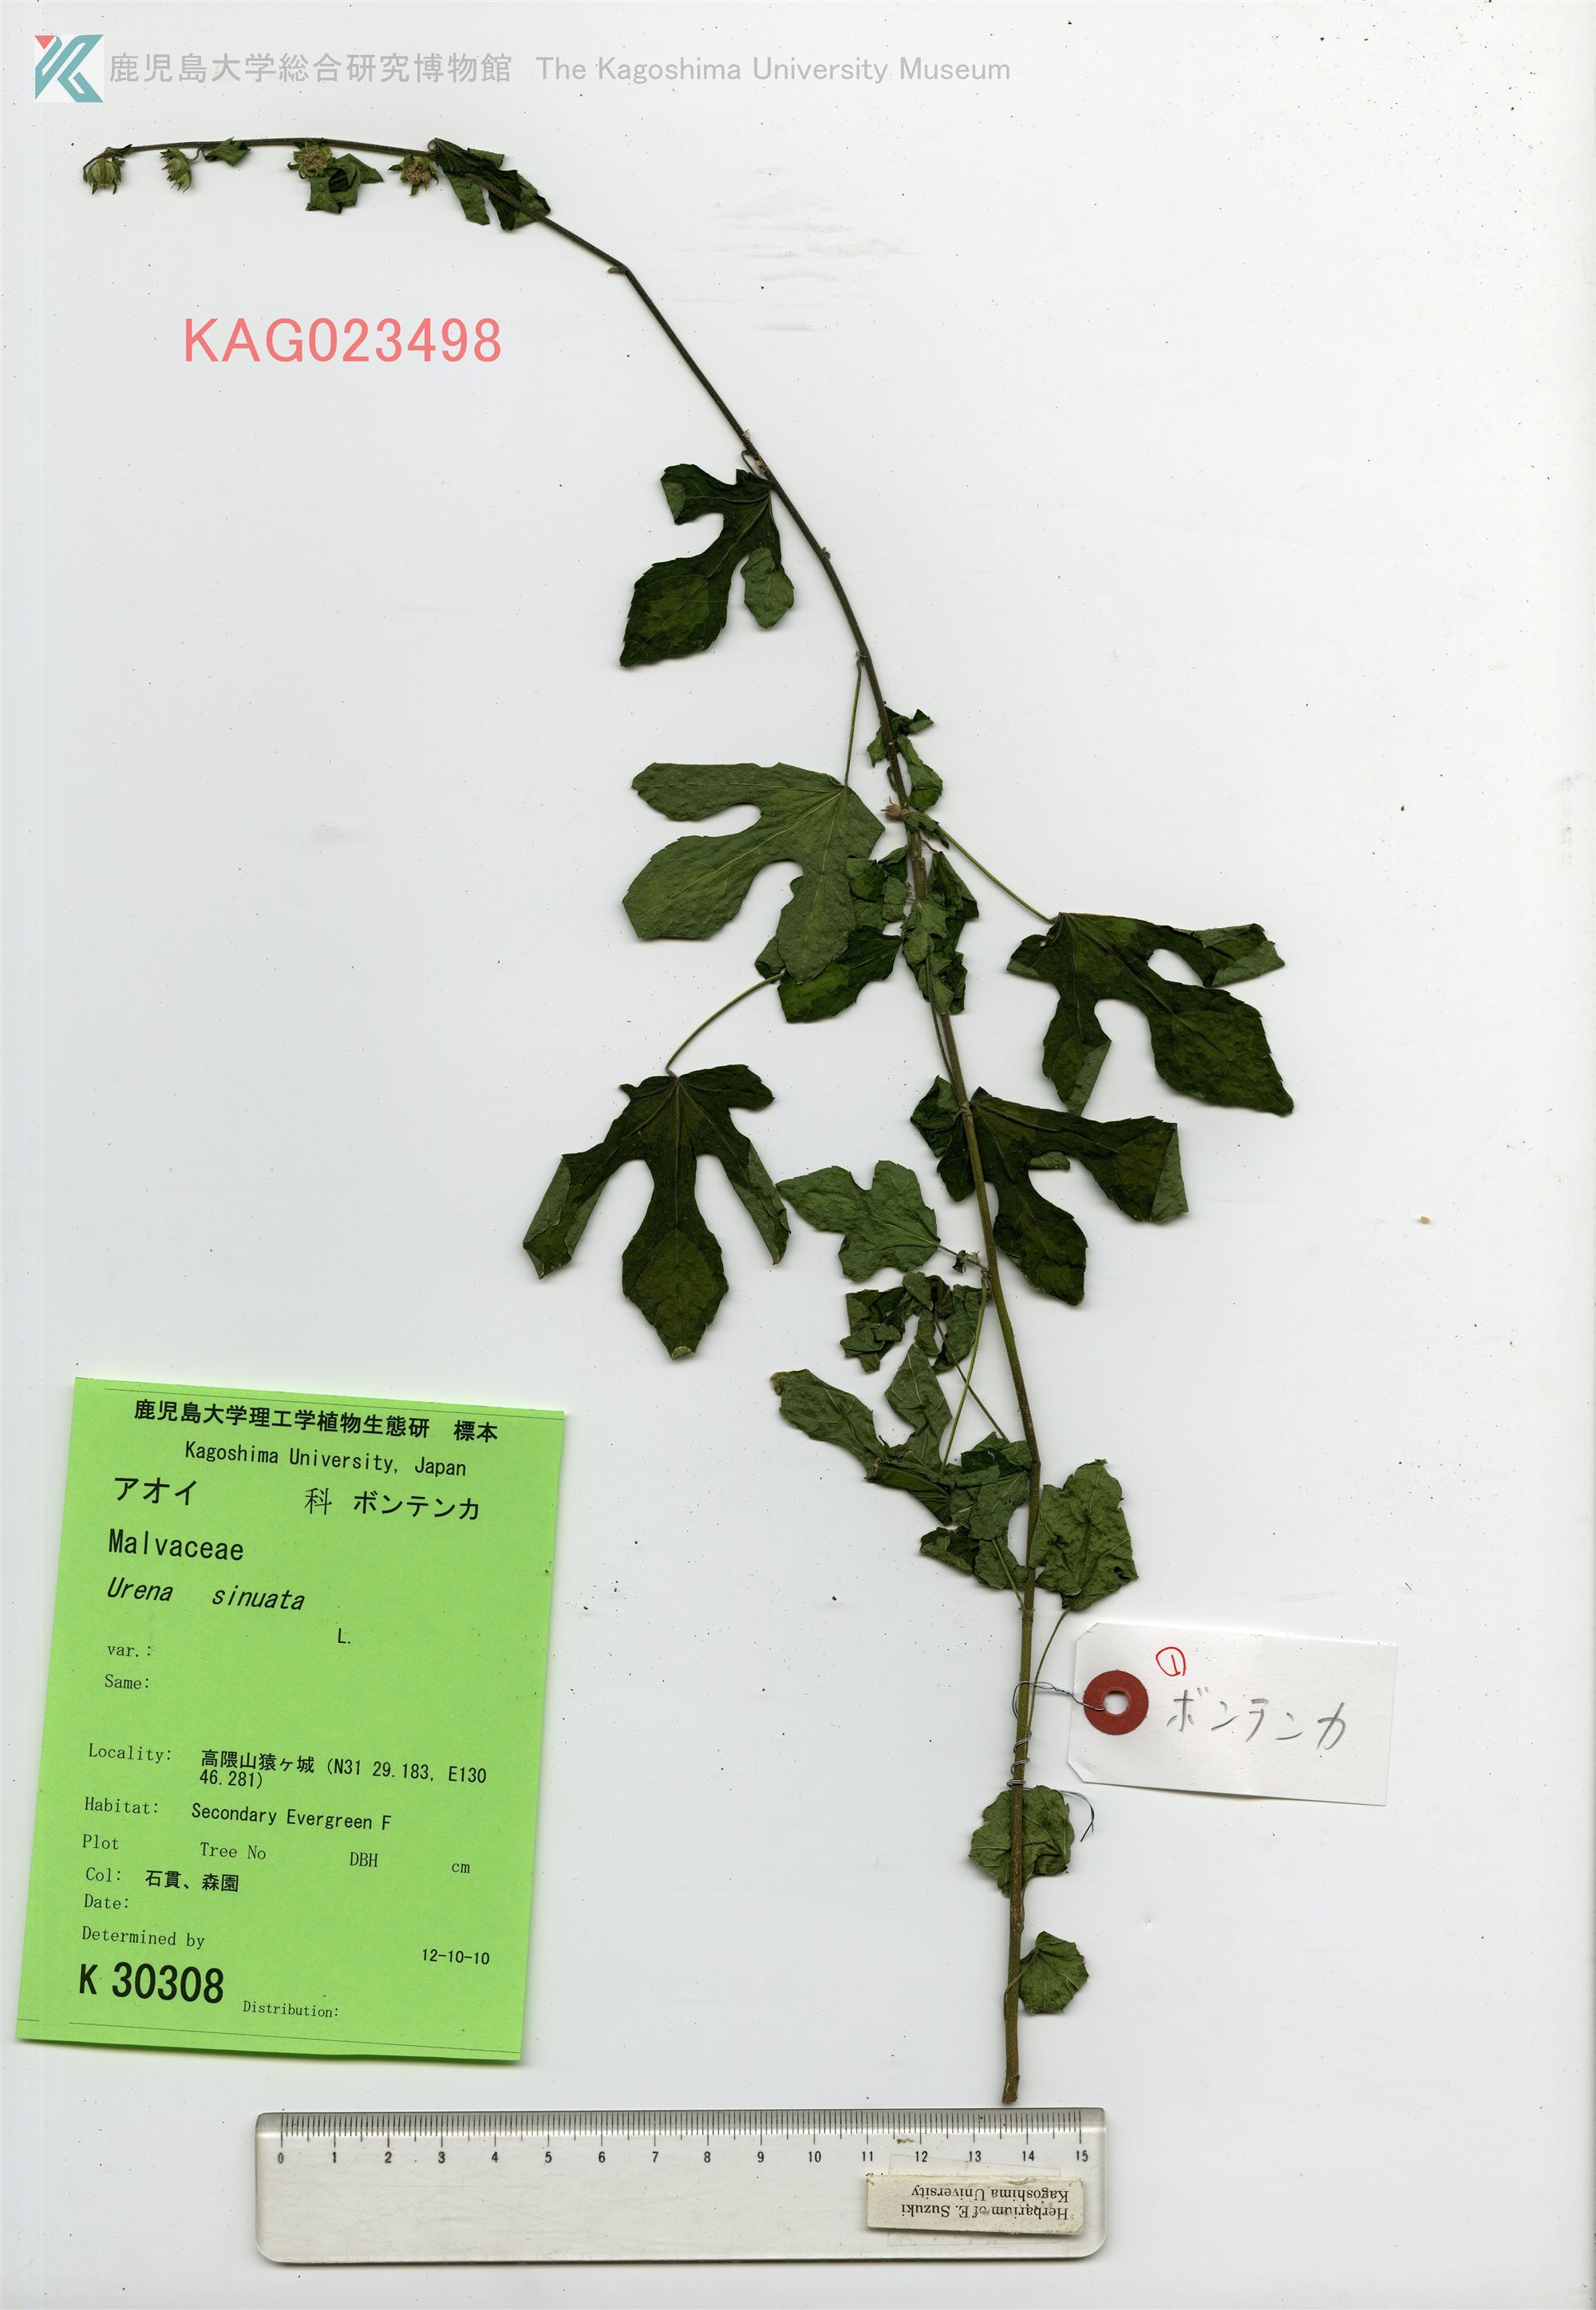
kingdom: Plantae
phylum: Tracheophyta
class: Magnoliopsida
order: Malvales
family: Malvaceae
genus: Urena
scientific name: Urena procumbens
